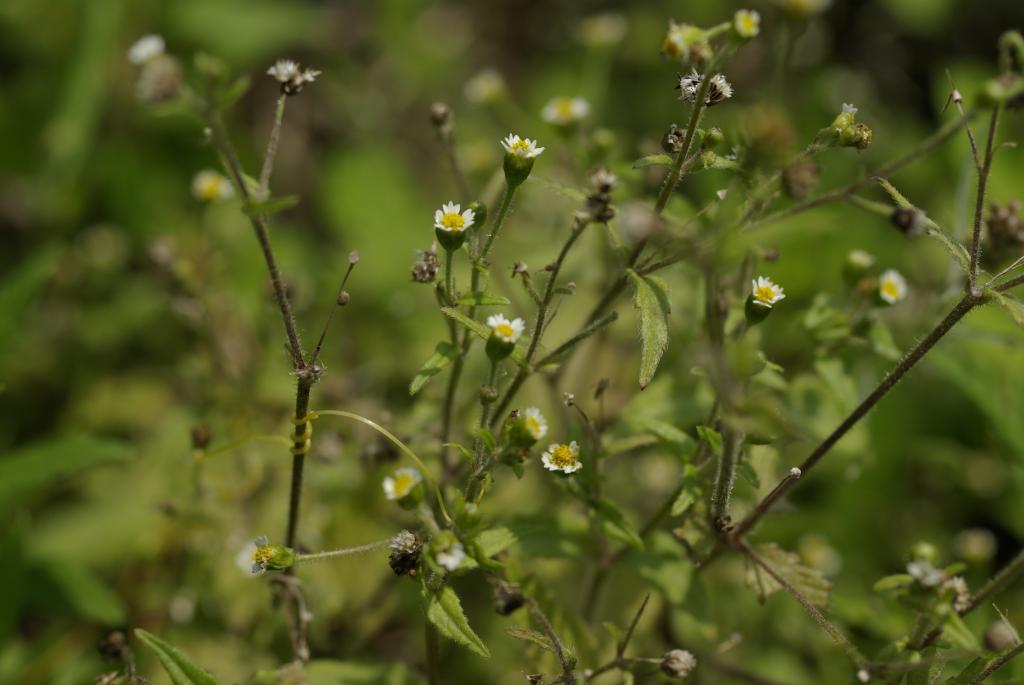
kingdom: Plantae
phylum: Tracheophyta
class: Magnoliopsida
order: Asterales
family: Asteraceae
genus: Galinsoga
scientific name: Galinsoga quadriradiata
